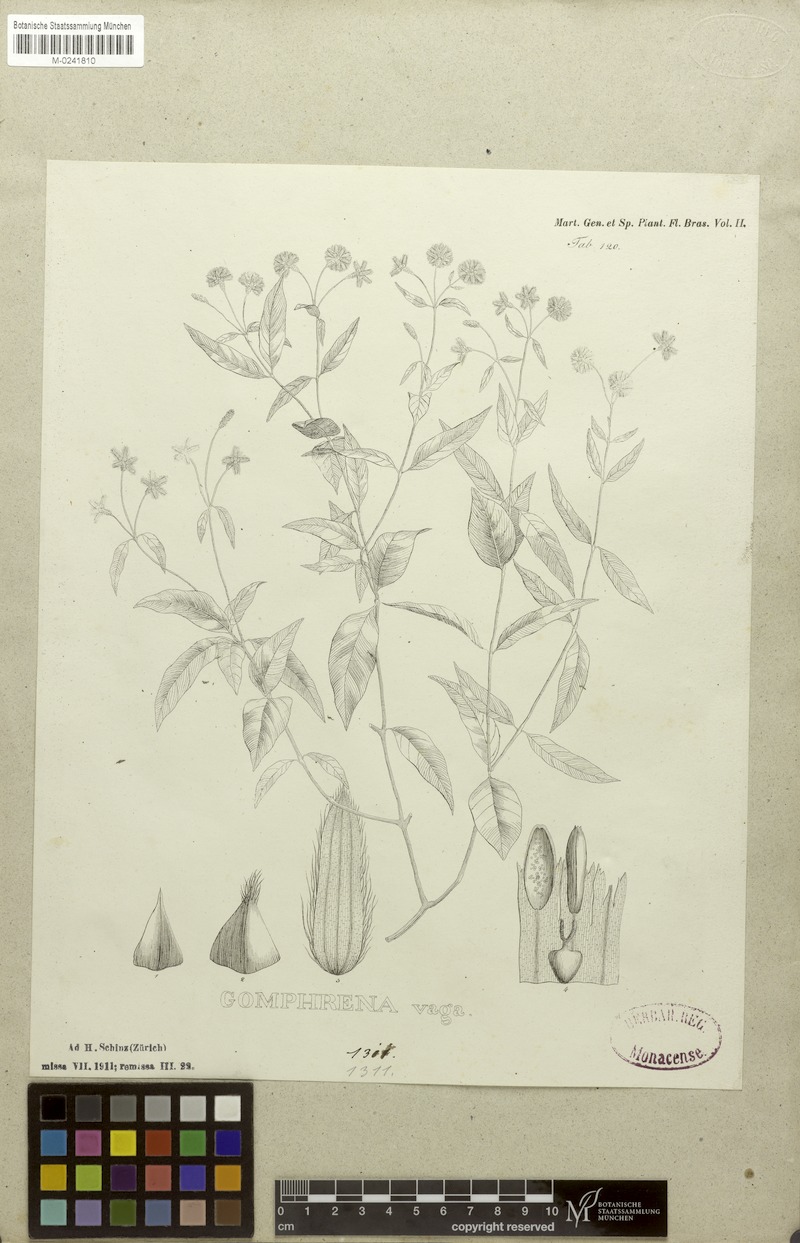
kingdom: Plantae
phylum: Tracheophyta
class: Magnoliopsida
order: Caryophyllales
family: Amaranthaceae
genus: Gomphrena
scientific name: Gomphrena vaga
